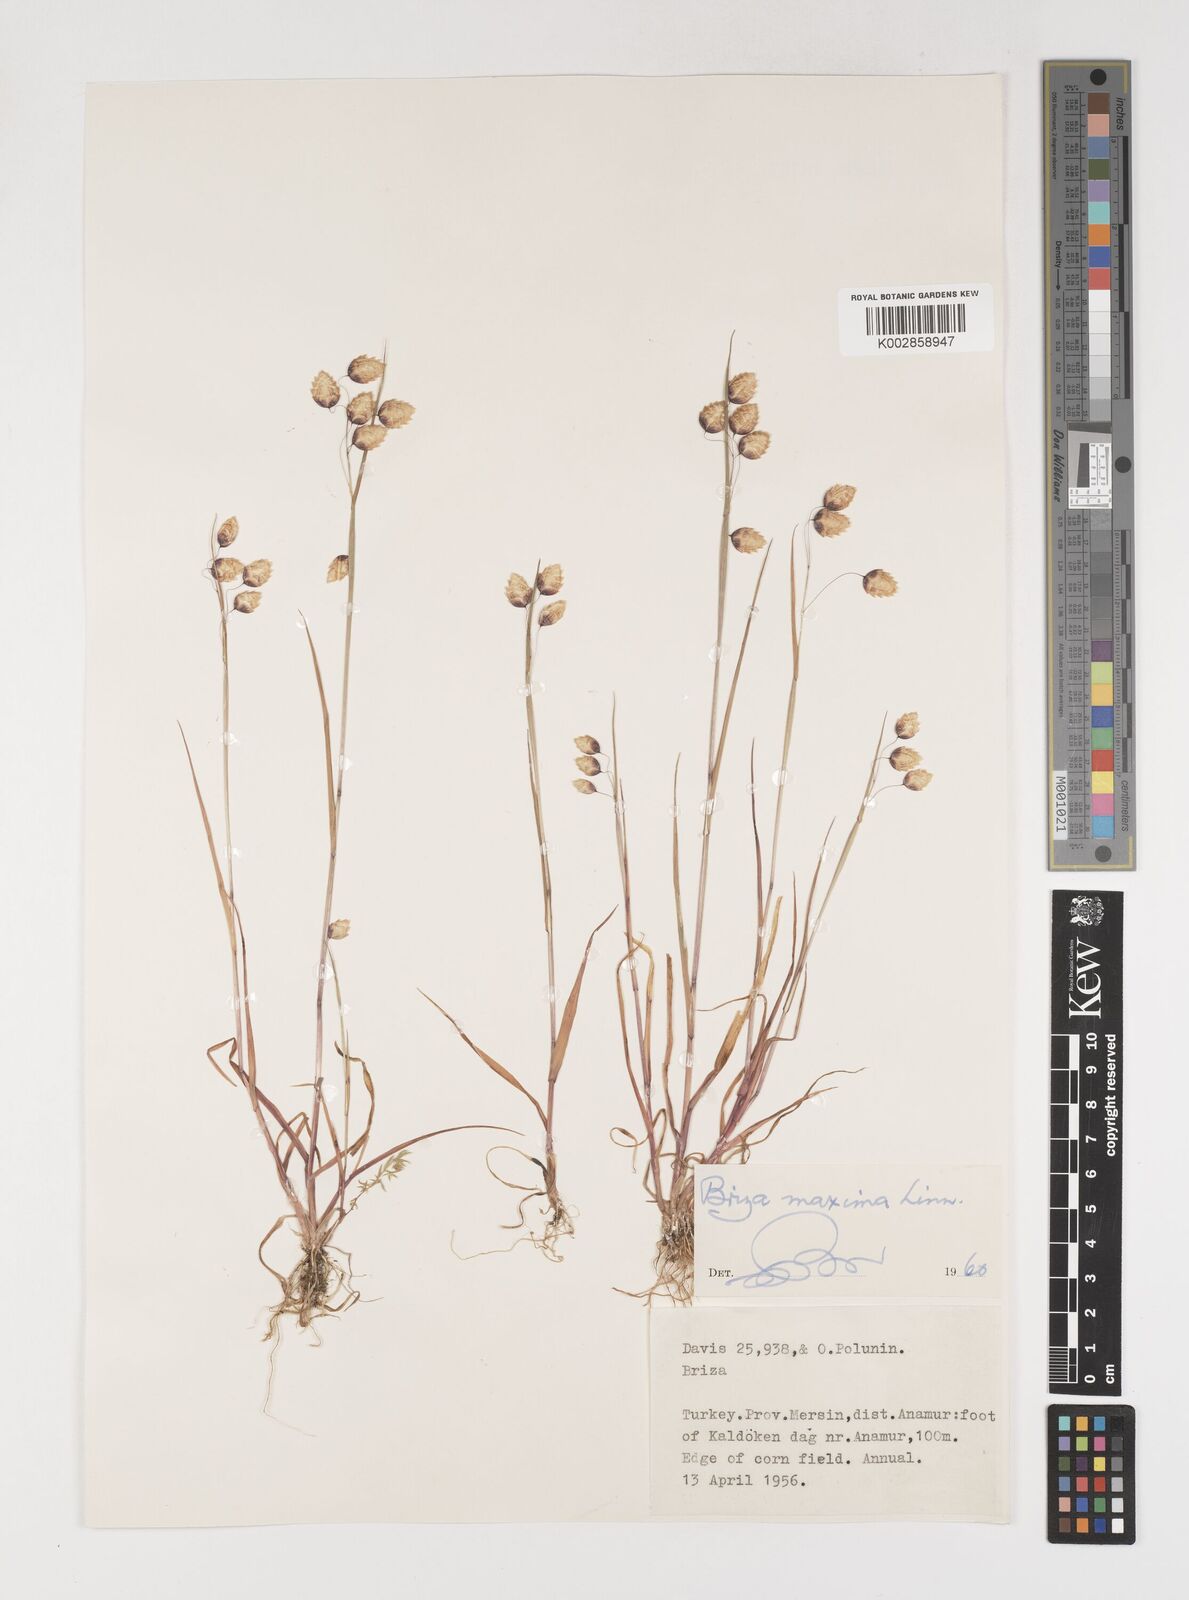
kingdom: Plantae
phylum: Tracheophyta
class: Liliopsida
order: Poales
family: Poaceae
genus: Briza
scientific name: Briza maxima
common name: Big quakinggrass
